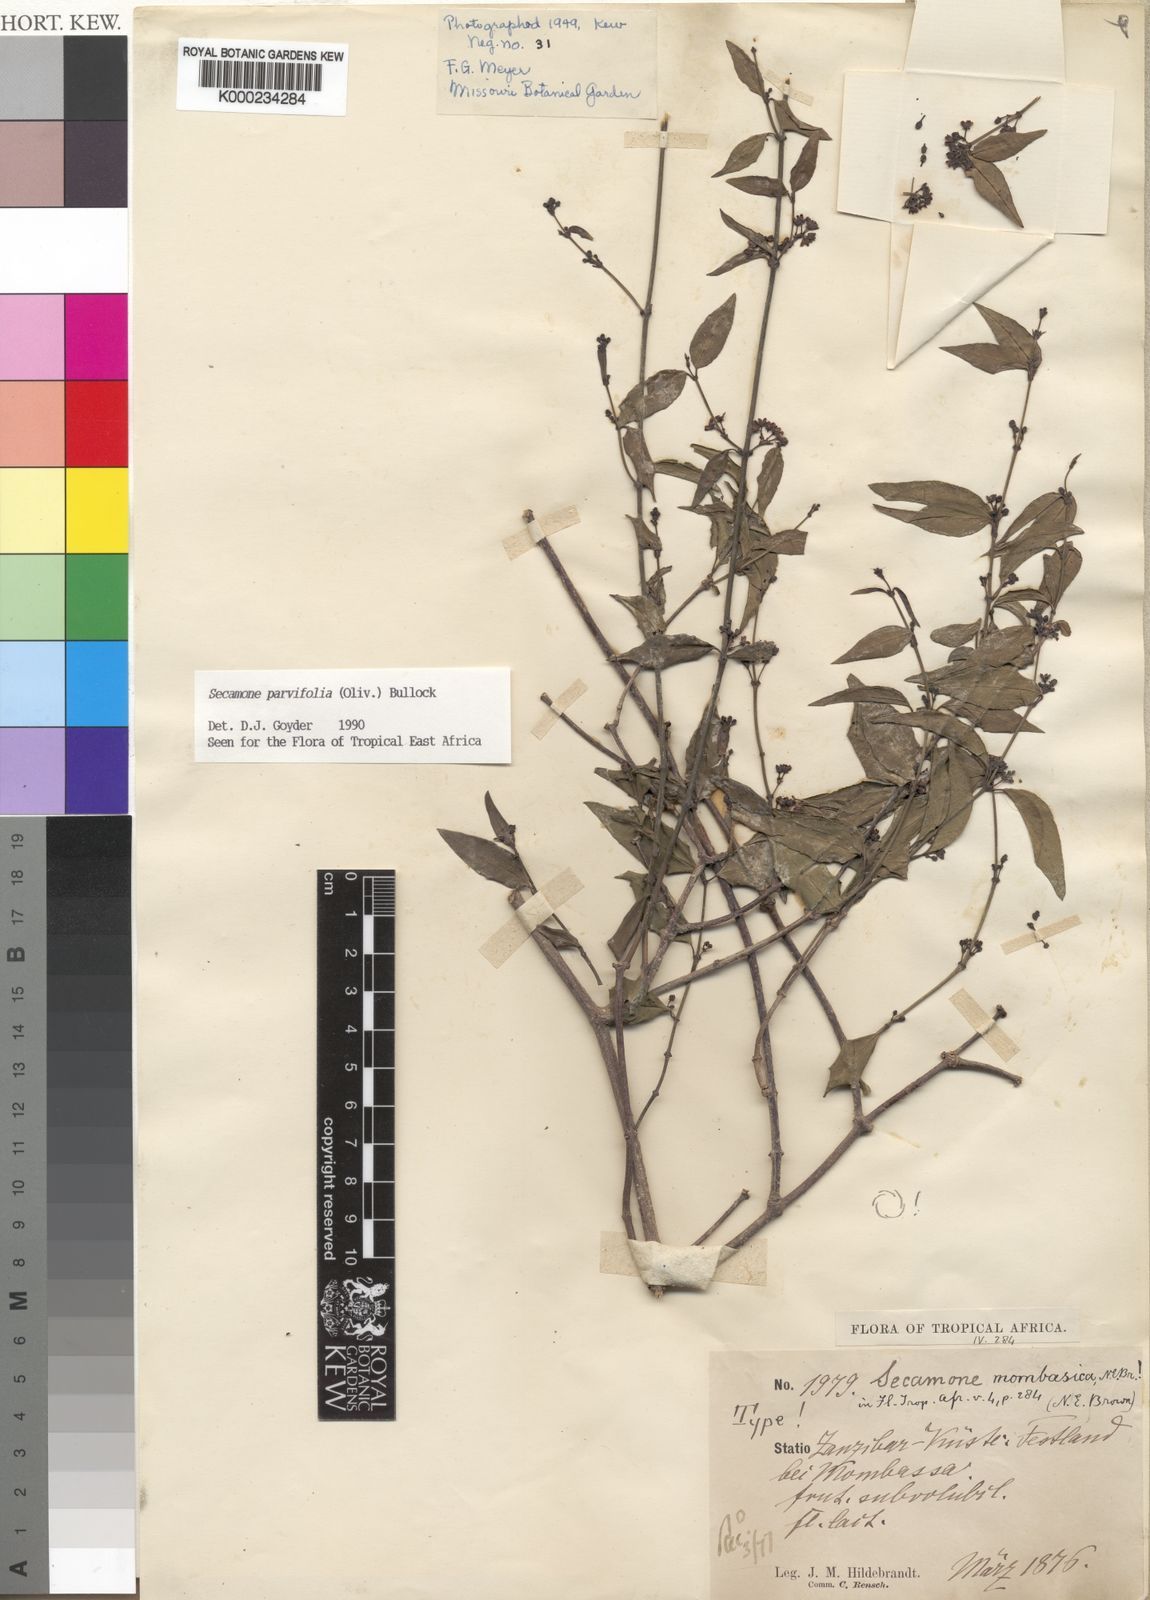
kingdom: Plantae
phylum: Tracheophyta
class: Magnoliopsida
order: Gentianales
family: Apocynaceae
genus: Secamone
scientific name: Secamone schweinfurthii
